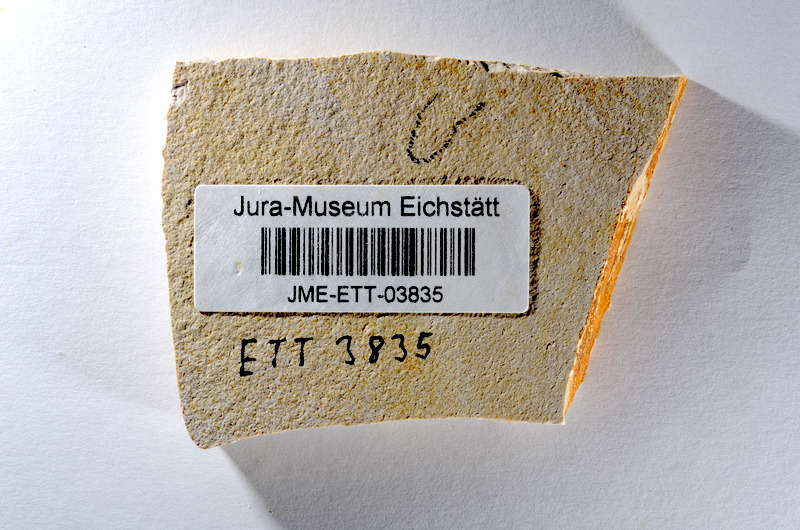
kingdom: Animalia
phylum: Chordata
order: Salmoniformes
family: Orthogonikleithridae
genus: Orthogonikleithrus
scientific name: Orthogonikleithrus hoelli
